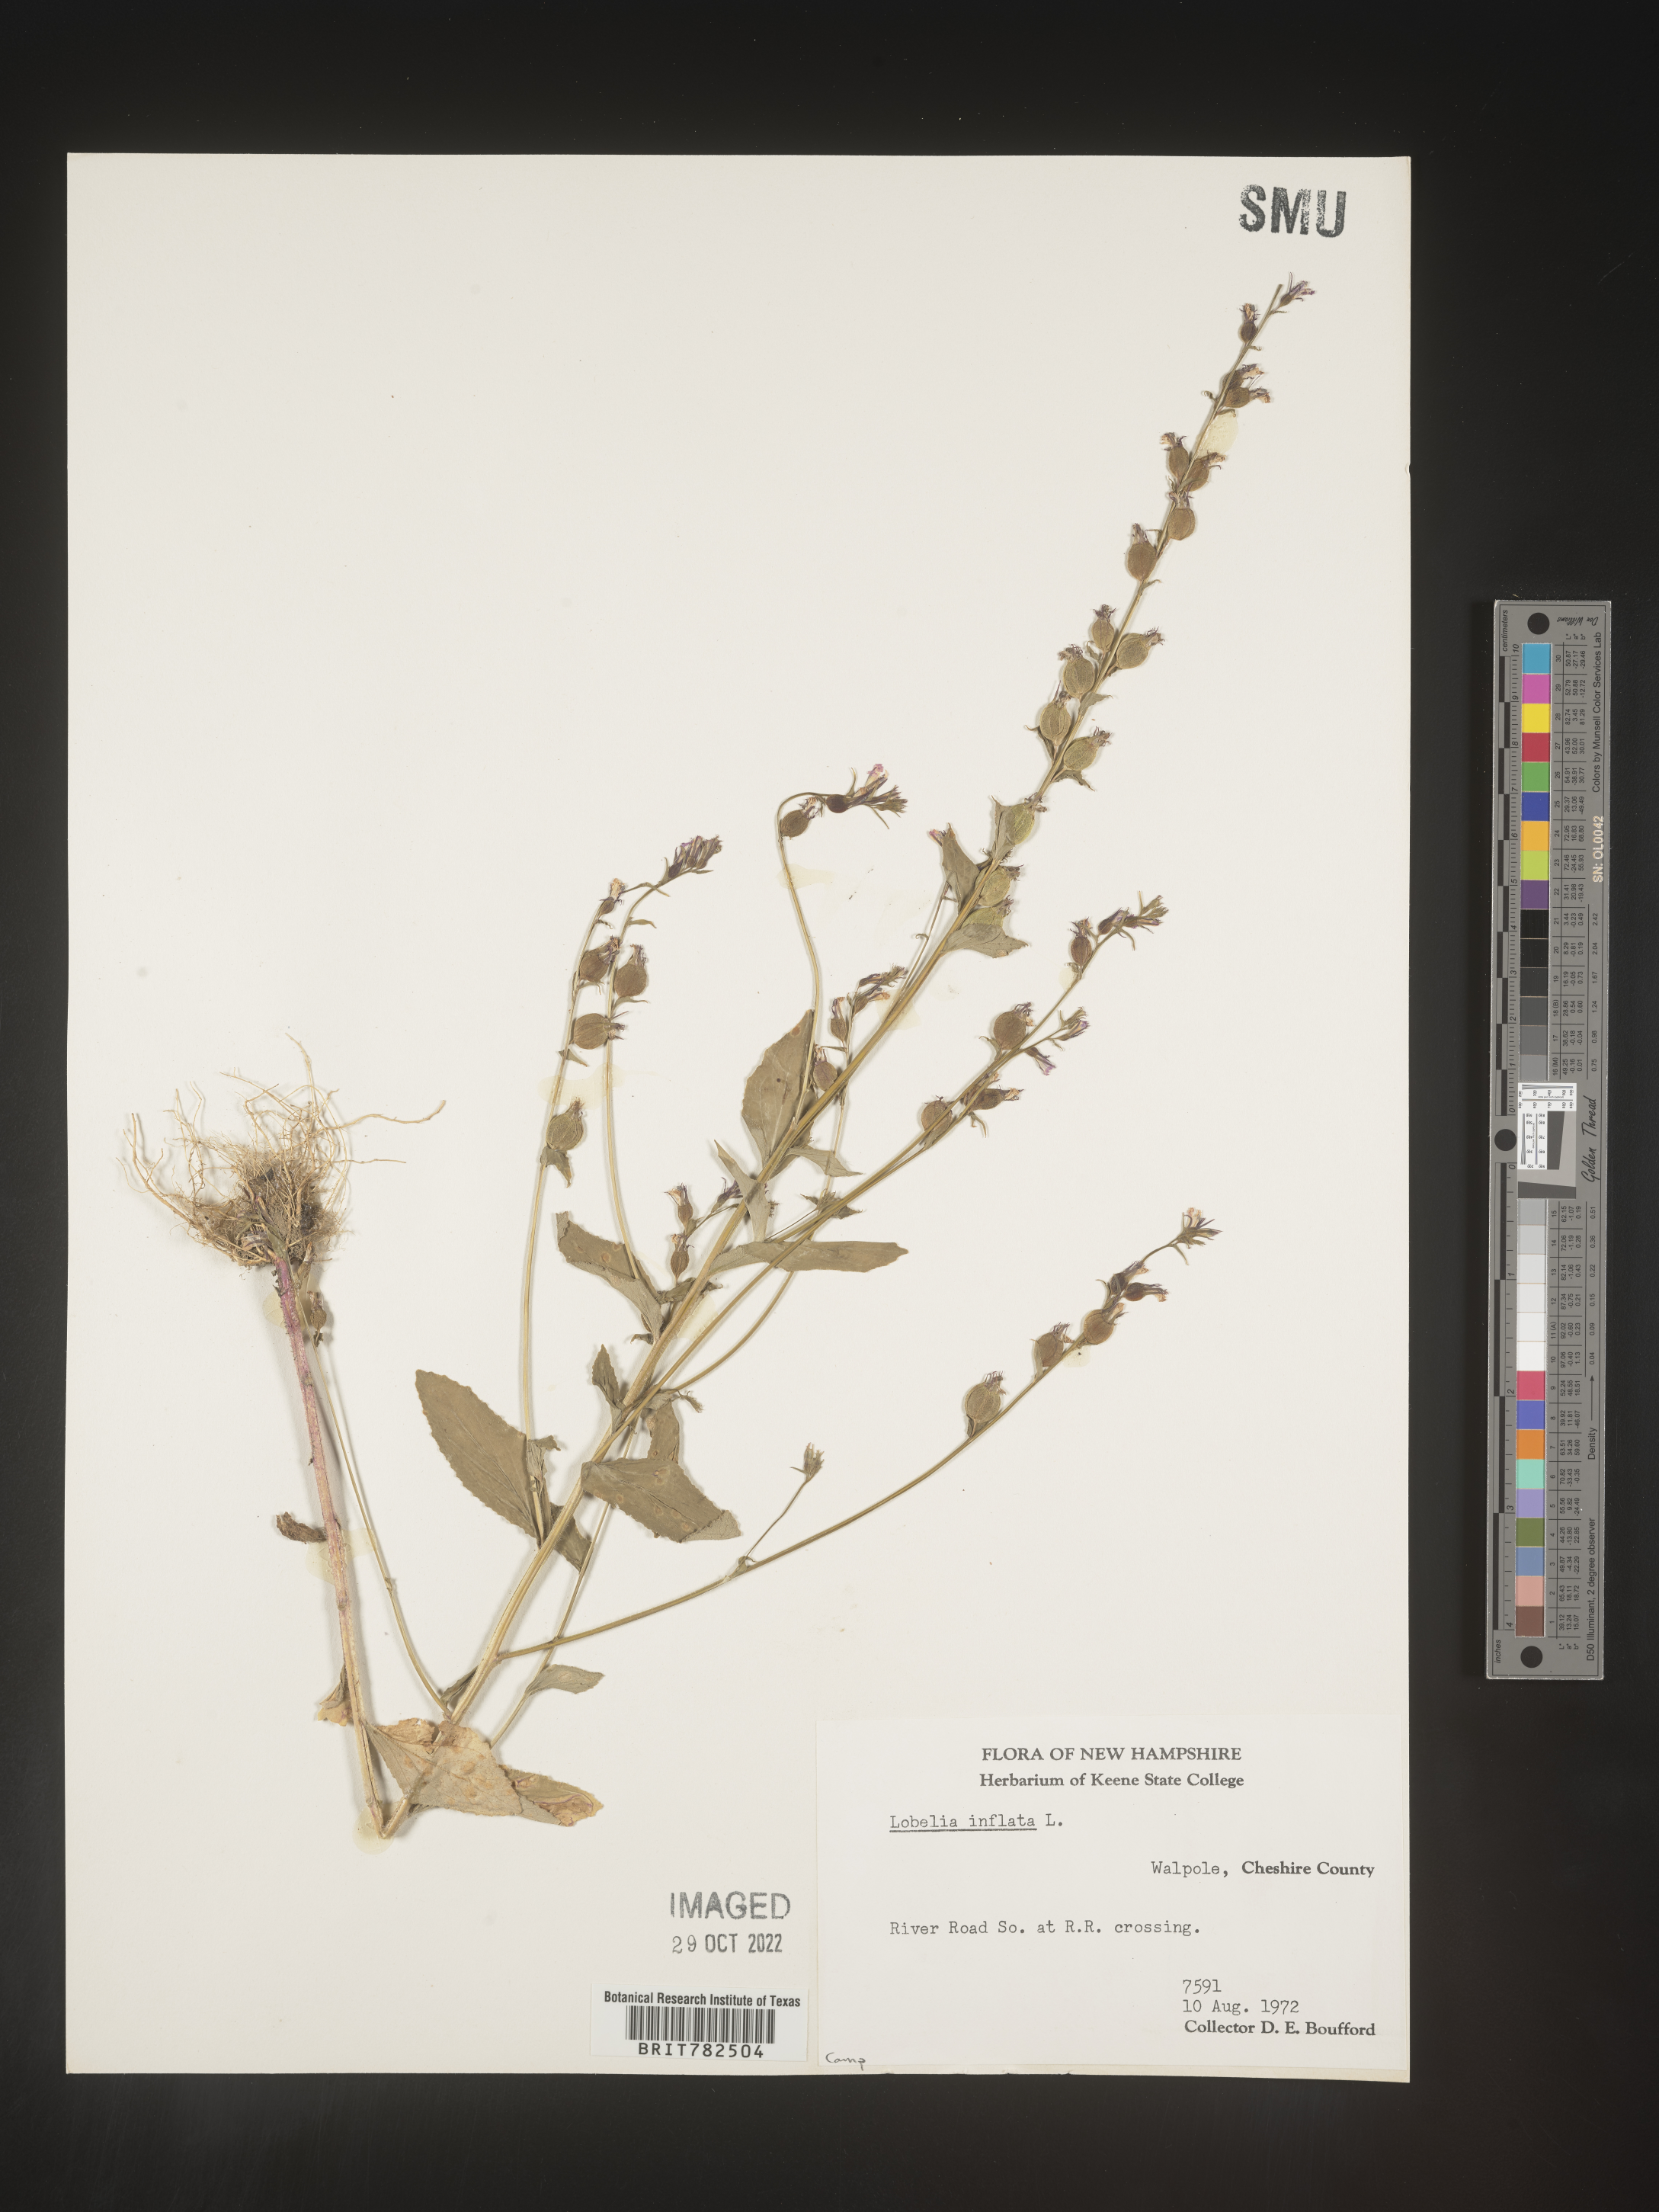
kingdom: Plantae
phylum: Tracheophyta
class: Magnoliopsida
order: Asterales
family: Campanulaceae
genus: Lobelia
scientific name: Lobelia inflata
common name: Indian tobacco
